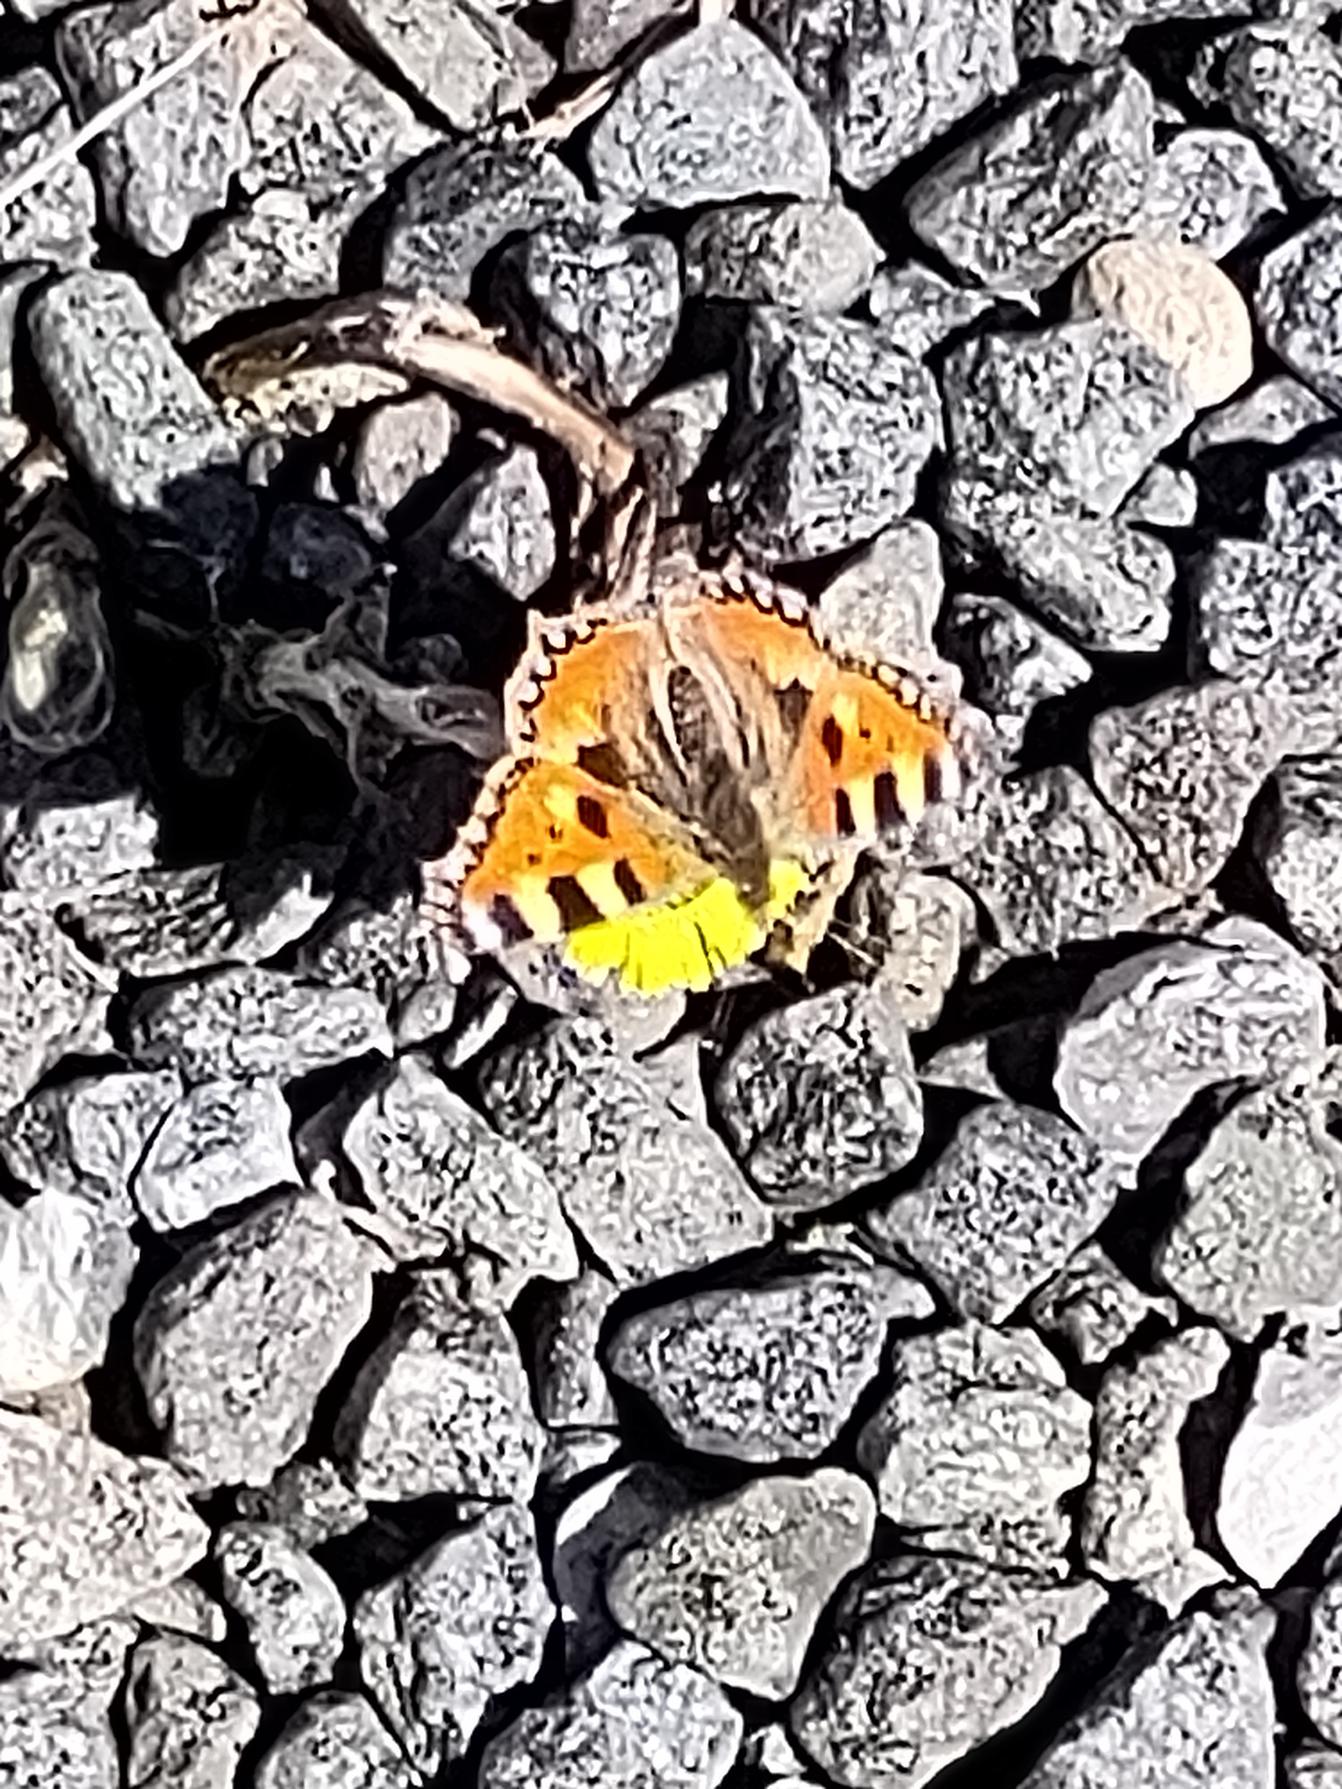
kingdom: Animalia
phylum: Arthropoda
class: Insecta
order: Lepidoptera
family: Nymphalidae
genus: Aglais
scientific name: Aglais urticae
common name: Nældens takvinge
